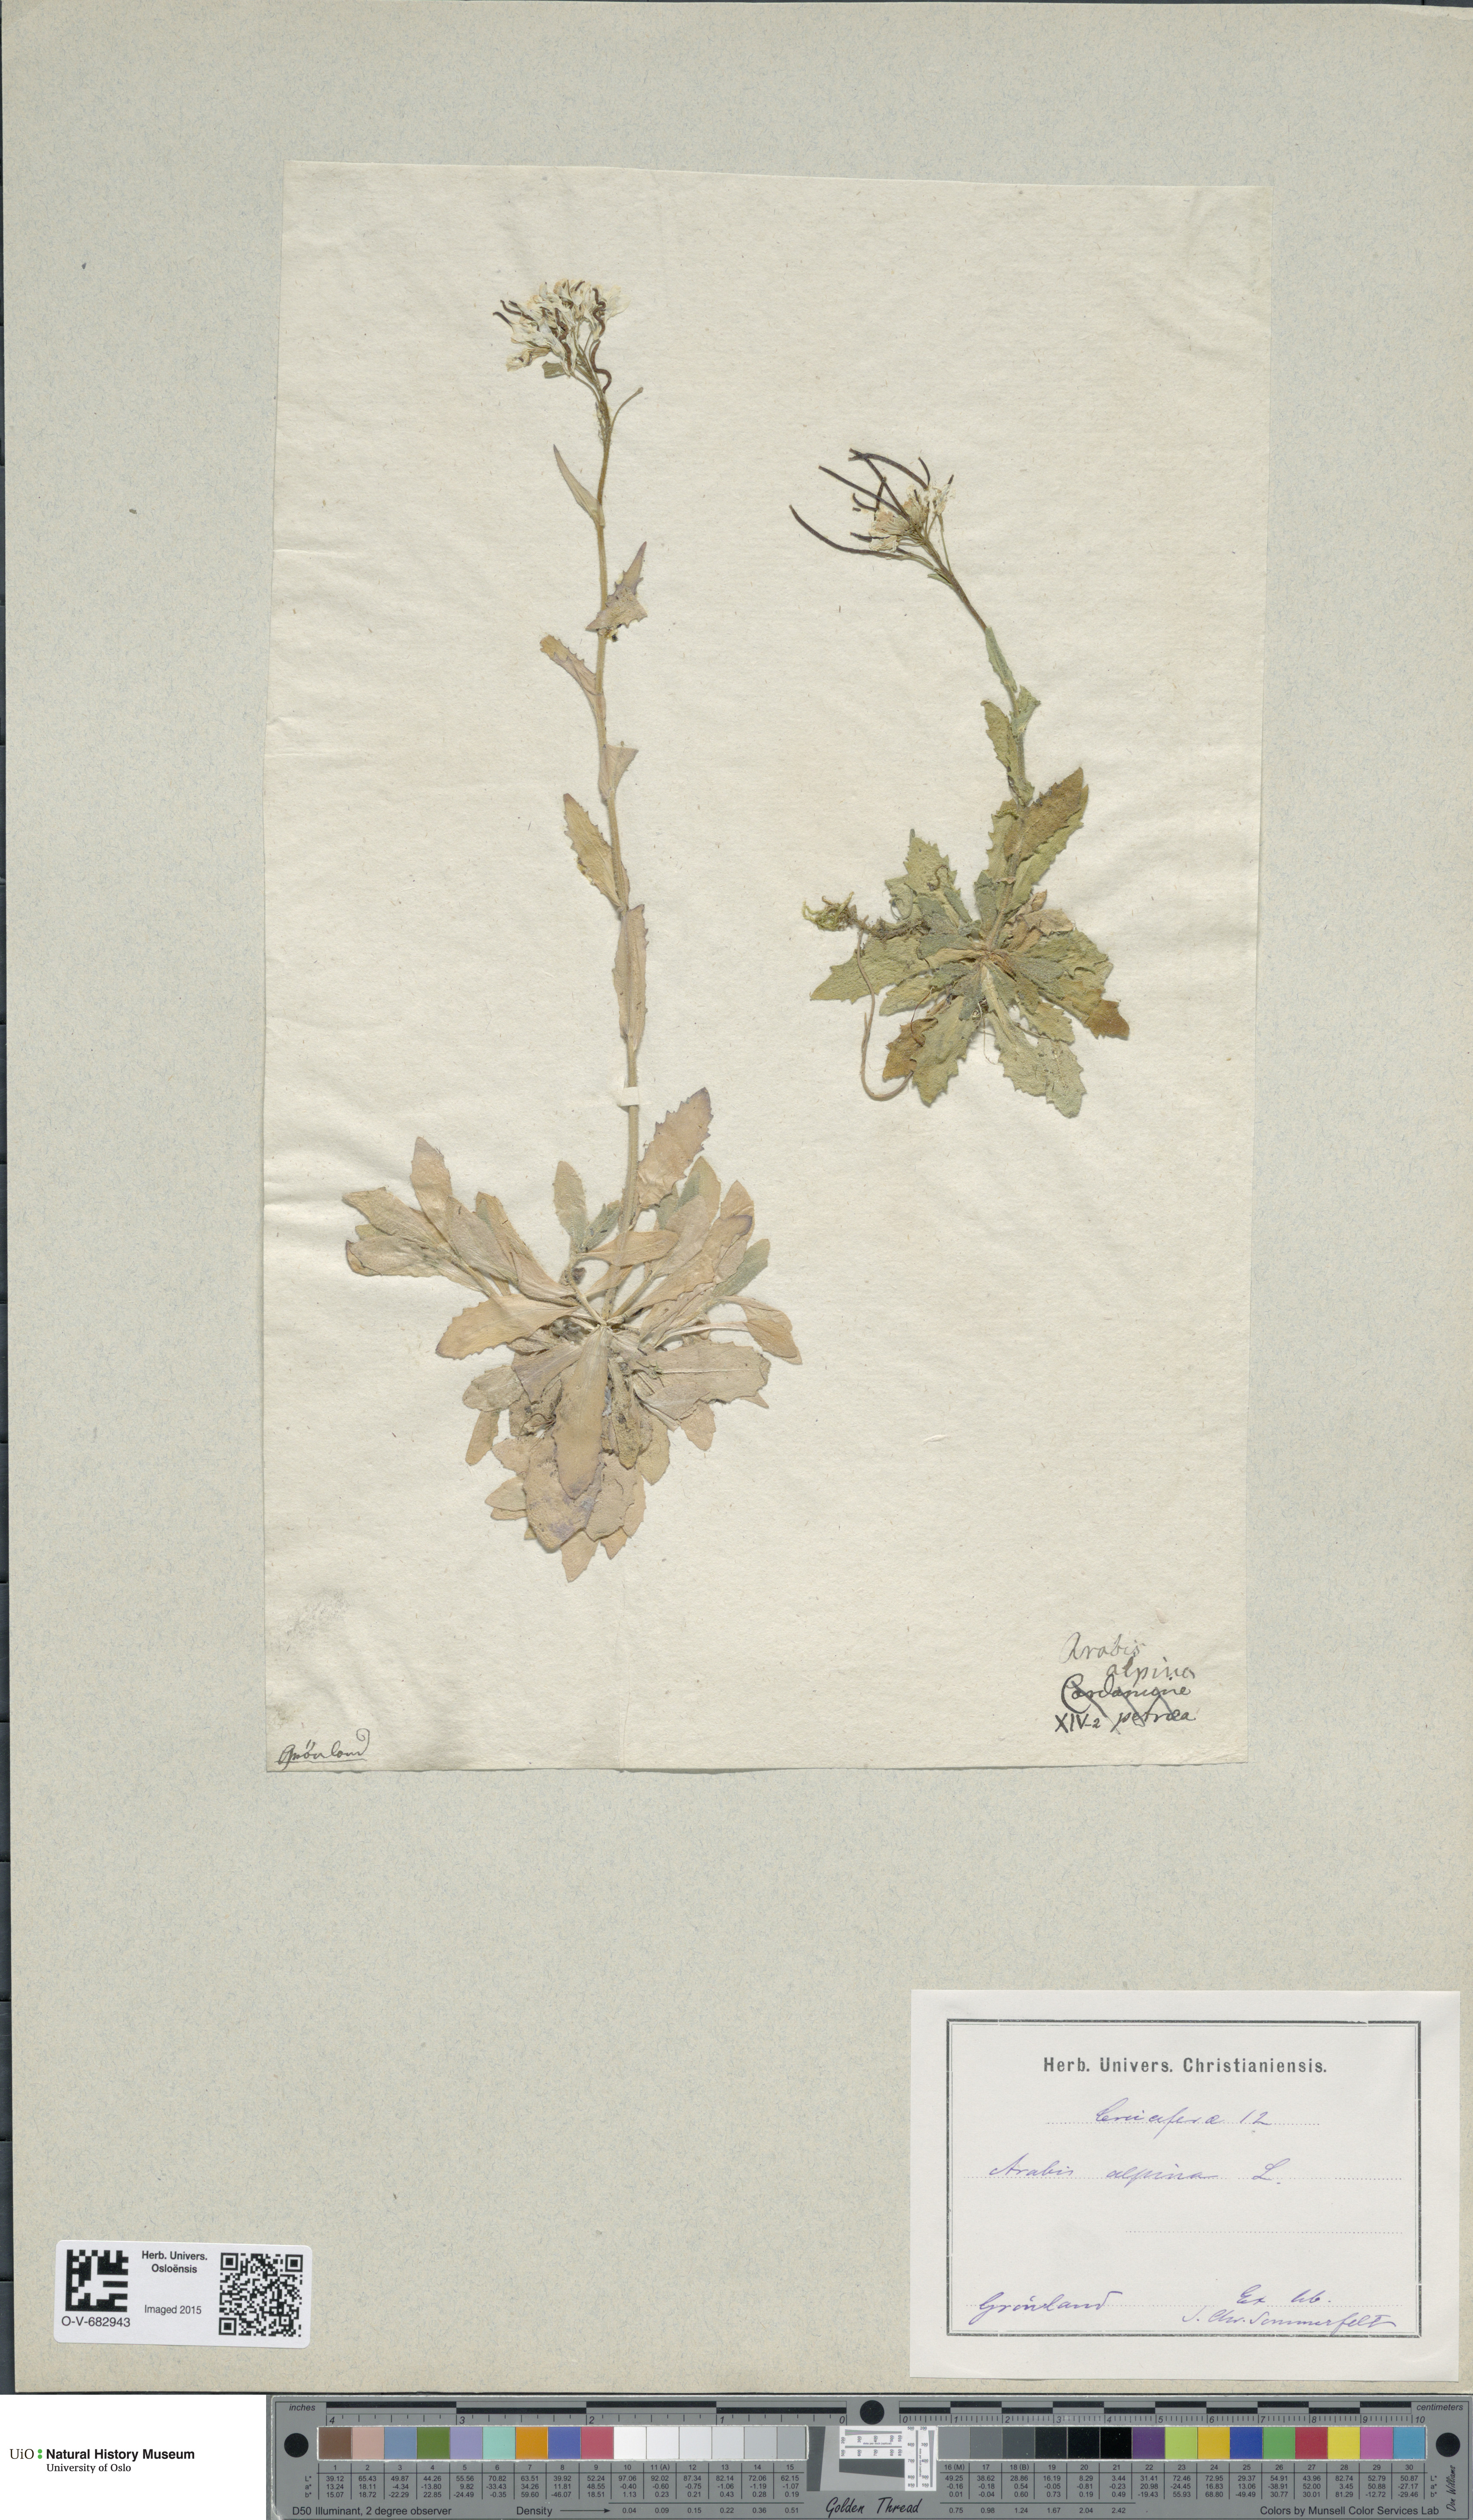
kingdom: Plantae
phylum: Tracheophyta
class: Magnoliopsida
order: Brassicales
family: Brassicaceae
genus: Arabis
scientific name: Arabis alpina
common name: Alpine rock-cress
